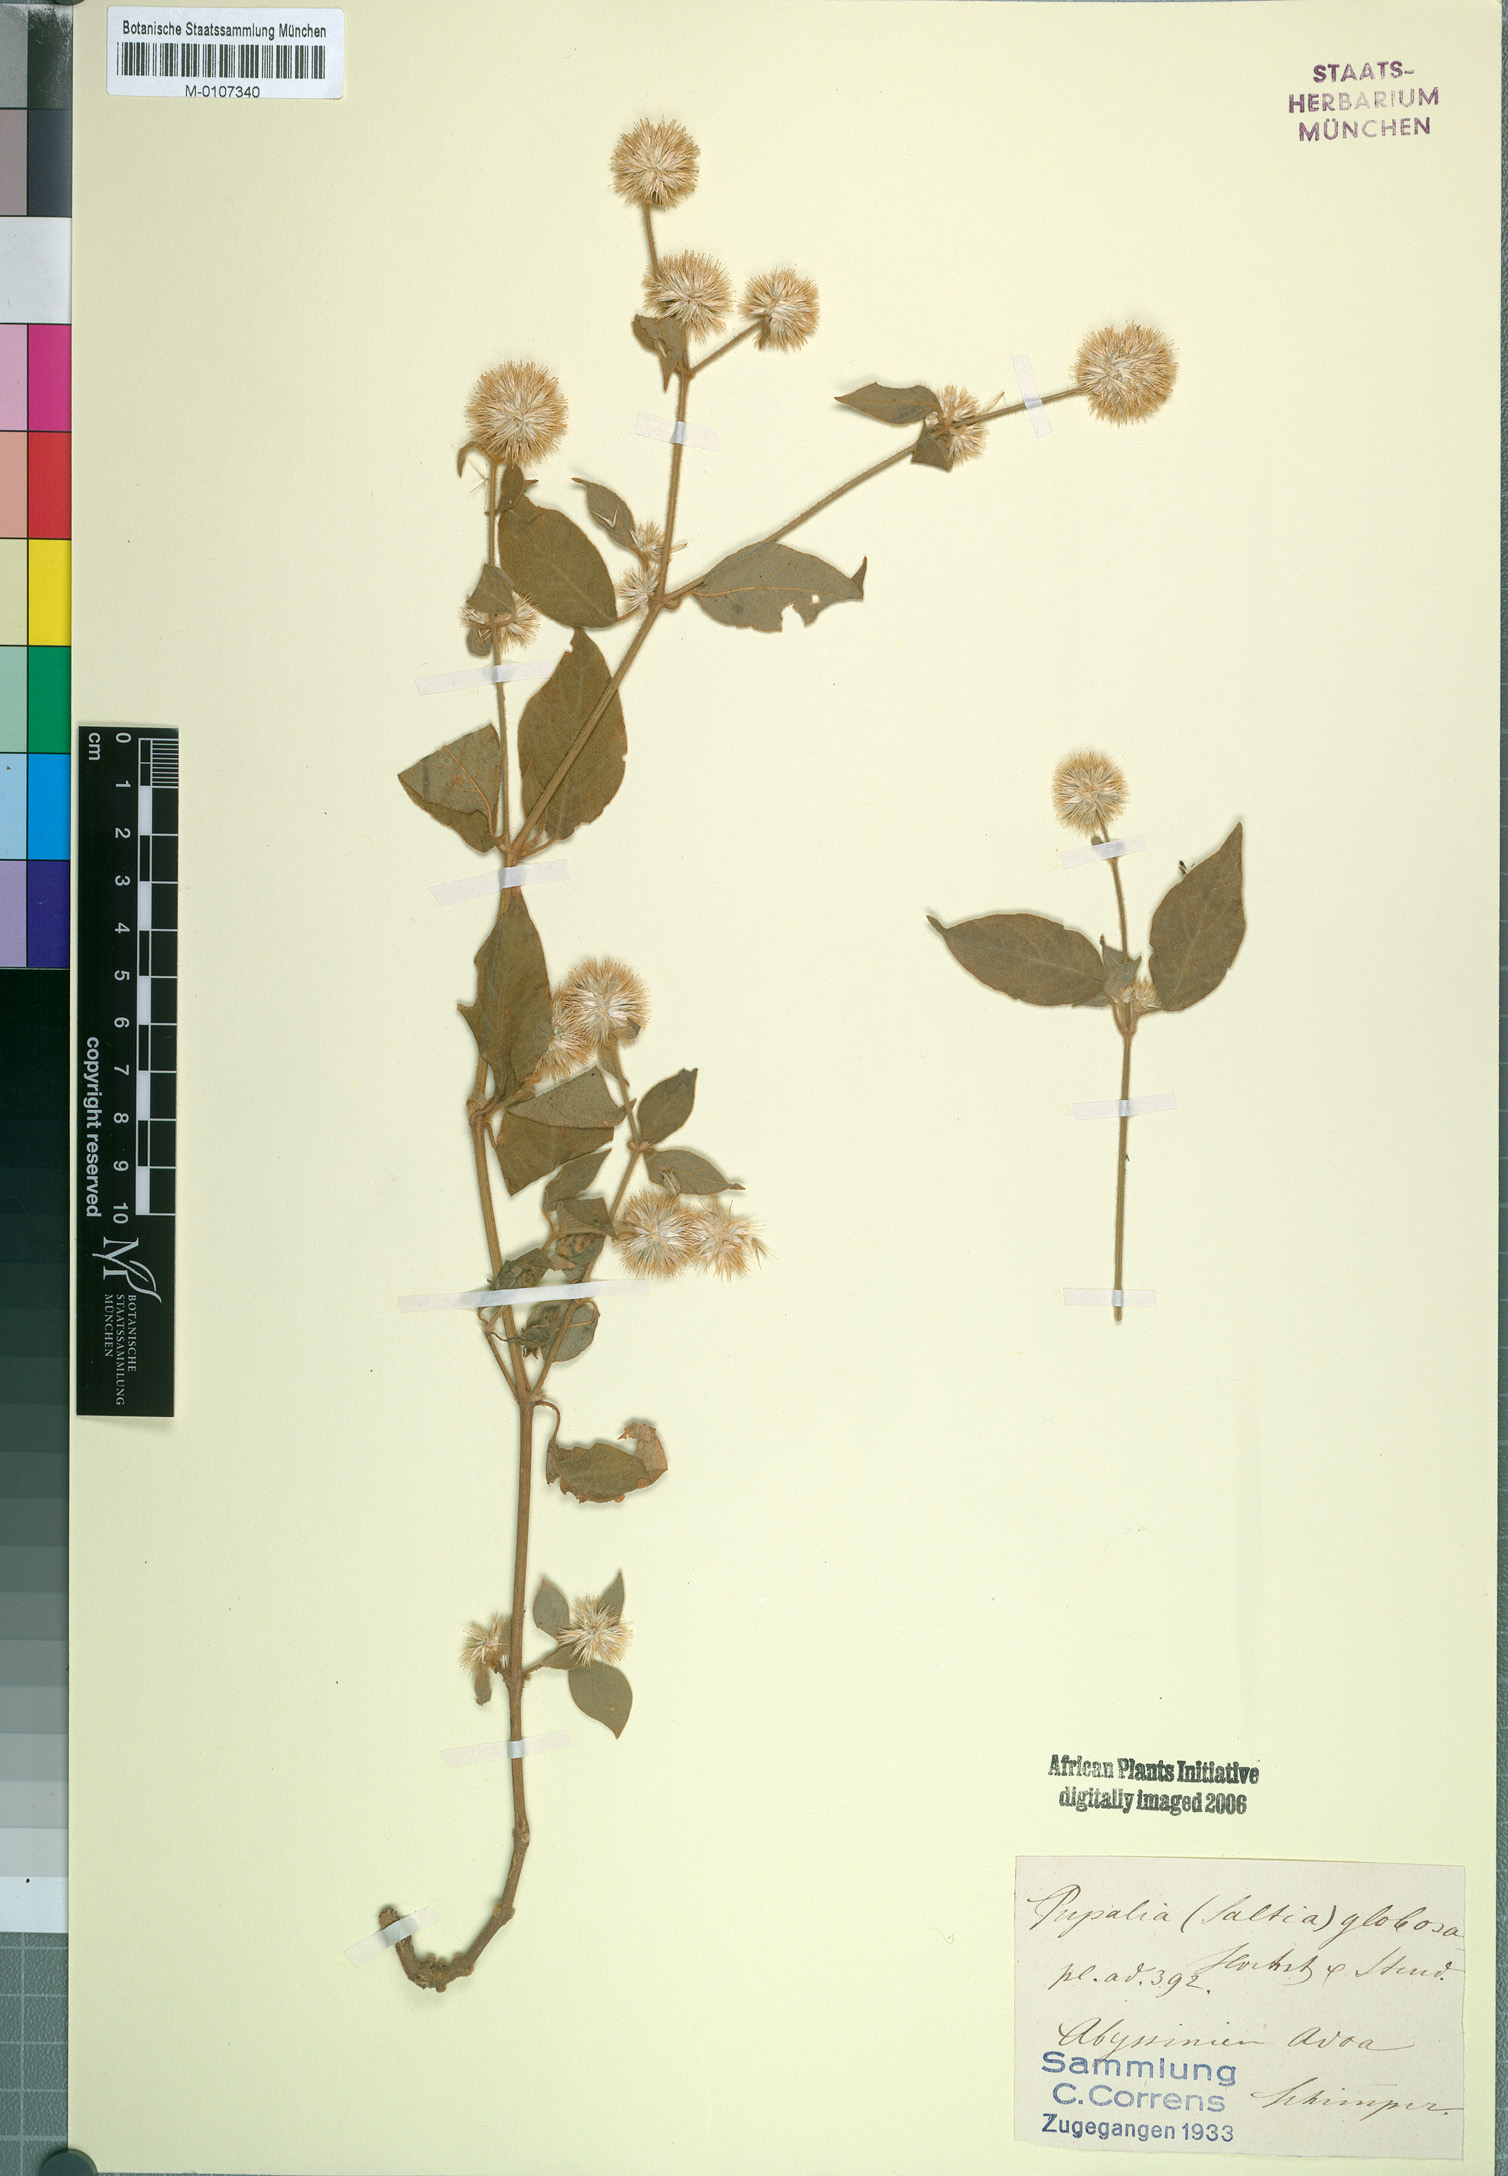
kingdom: Plantae
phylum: Tracheophyta
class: Magnoliopsida
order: Caryophyllales
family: Amaranthaceae
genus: Cyathula
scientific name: Cyathula uncinulata
